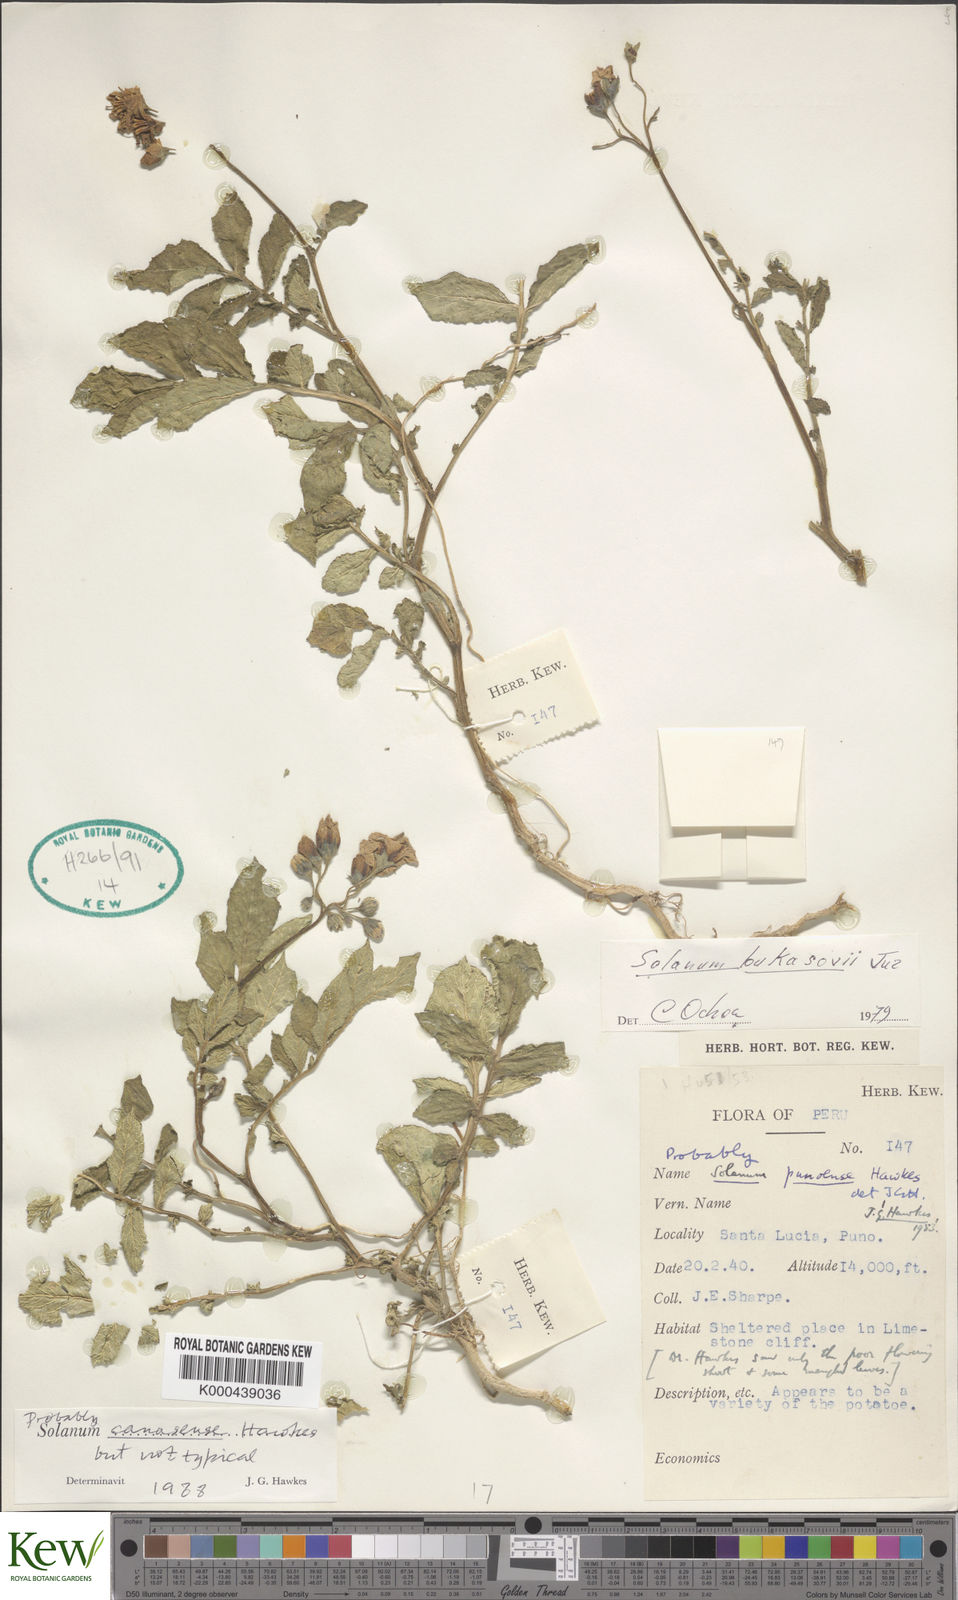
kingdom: Plantae
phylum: Tracheophyta
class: Magnoliopsida
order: Solanales
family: Solanaceae
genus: Solanum
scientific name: Solanum candolleanum
